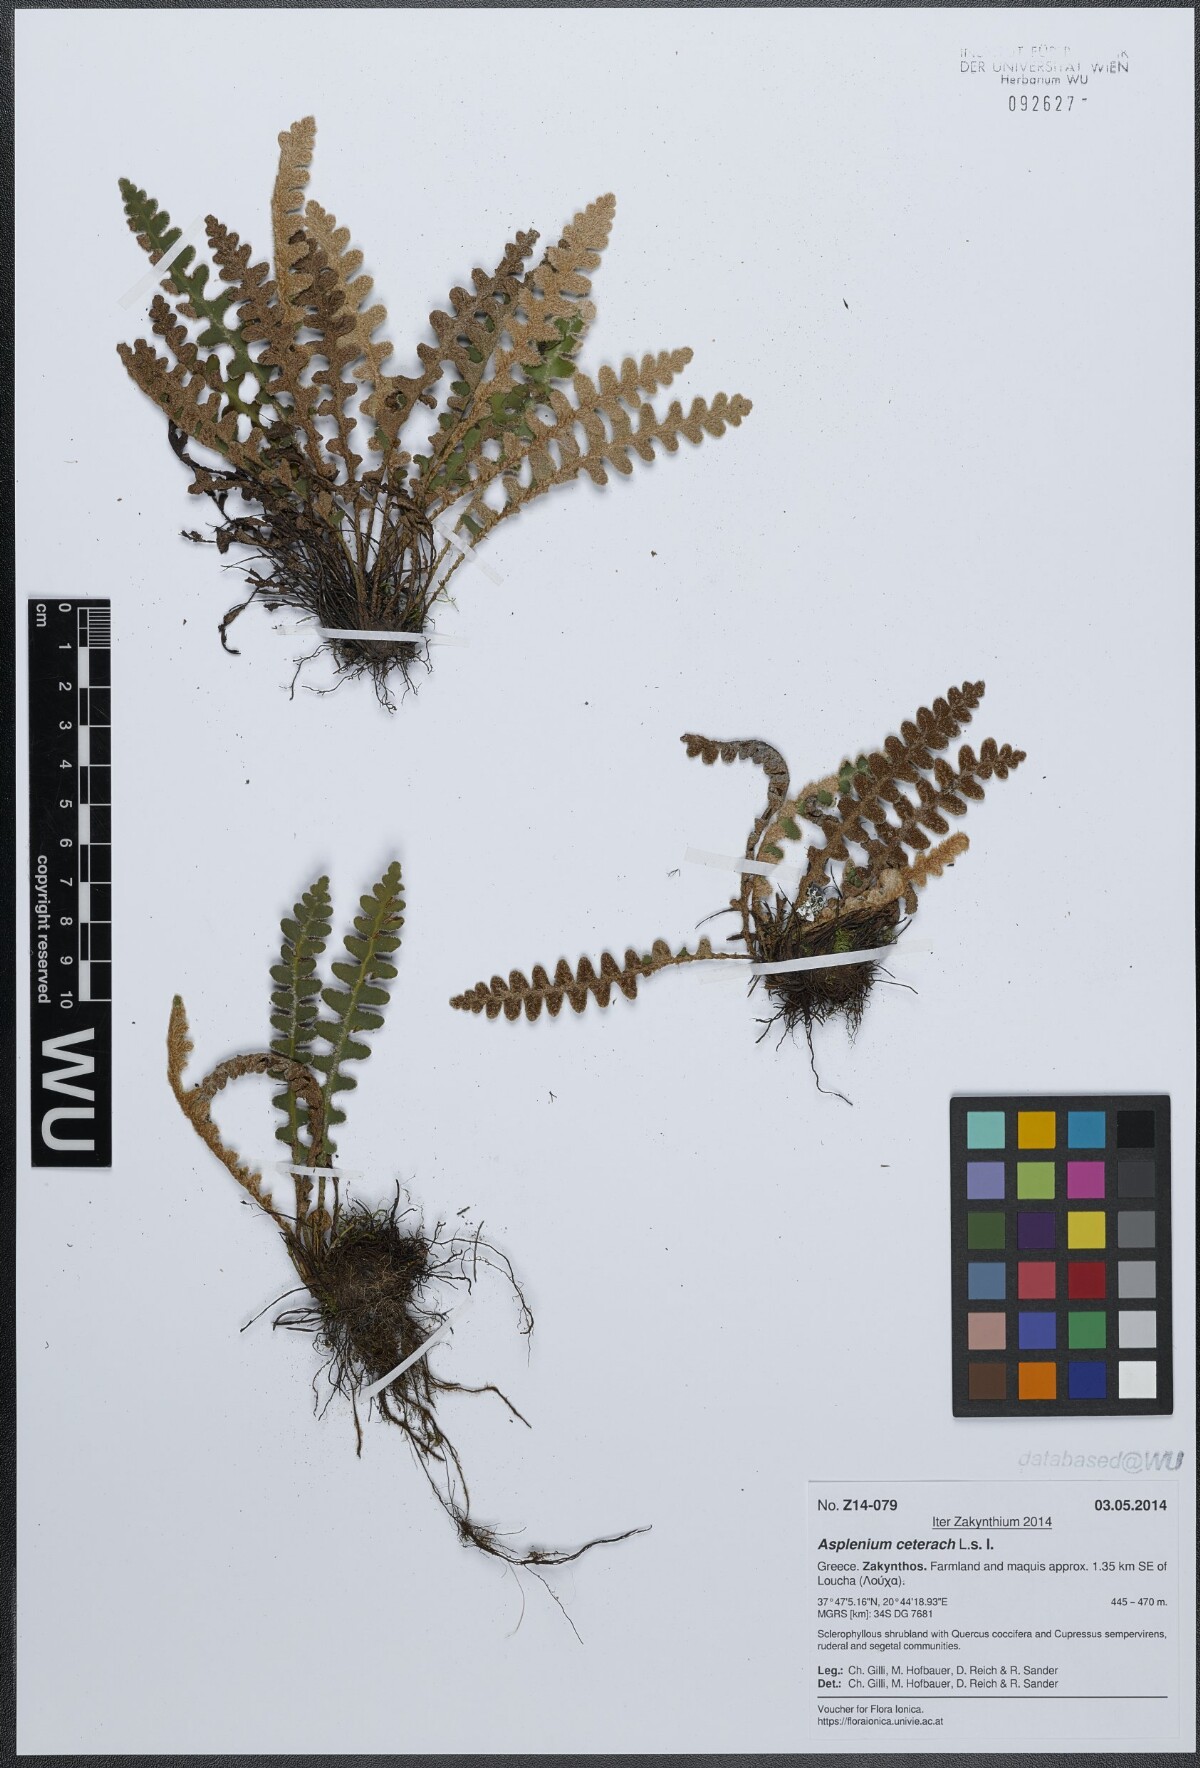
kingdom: Plantae
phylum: Tracheophyta
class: Polypodiopsida
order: Polypodiales
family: Aspleniaceae
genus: Asplenium
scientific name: Asplenium ceterach
